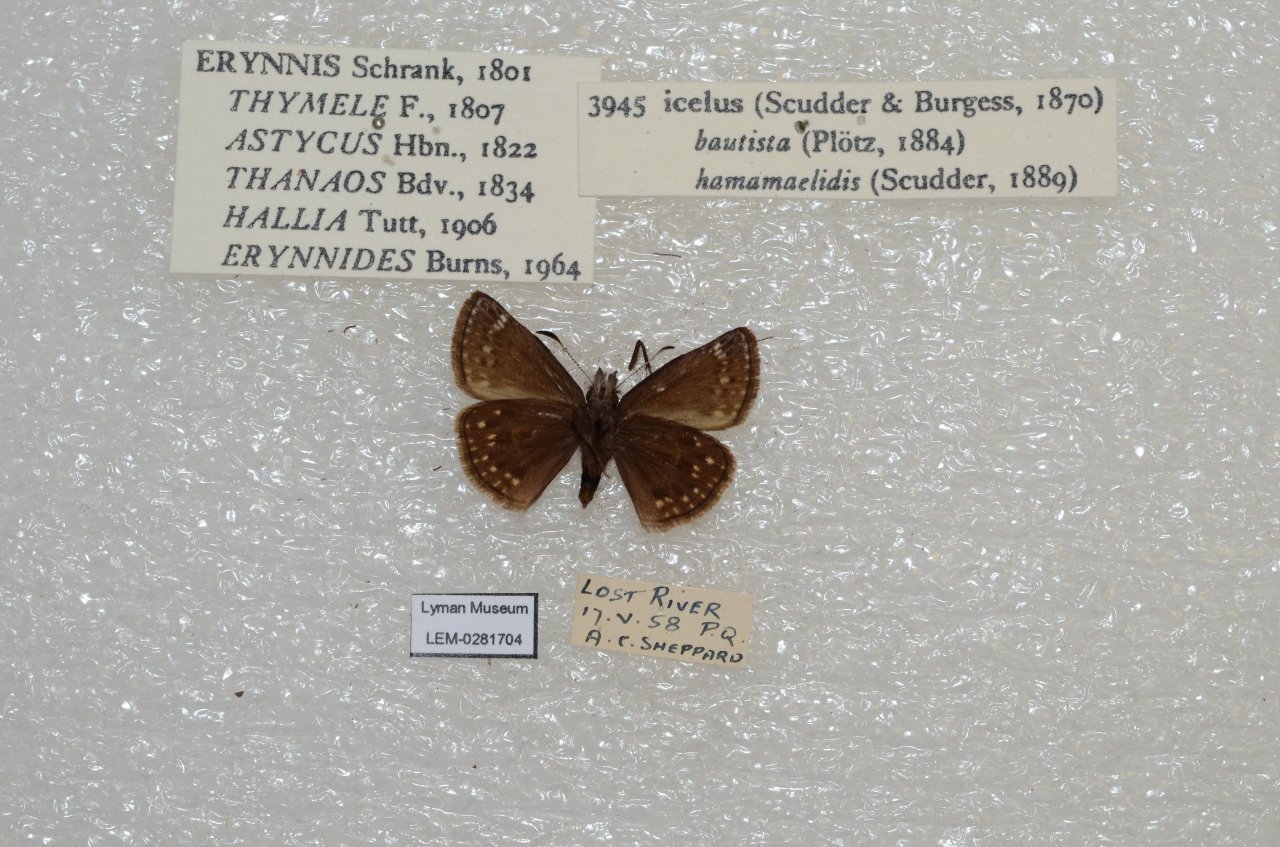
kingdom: Animalia
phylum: Arthropoda
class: Insecta
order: Lepidoptera
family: Hesperiidae
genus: Erynnis
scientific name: Erynnis icelus
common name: Dreamy Duskywing
